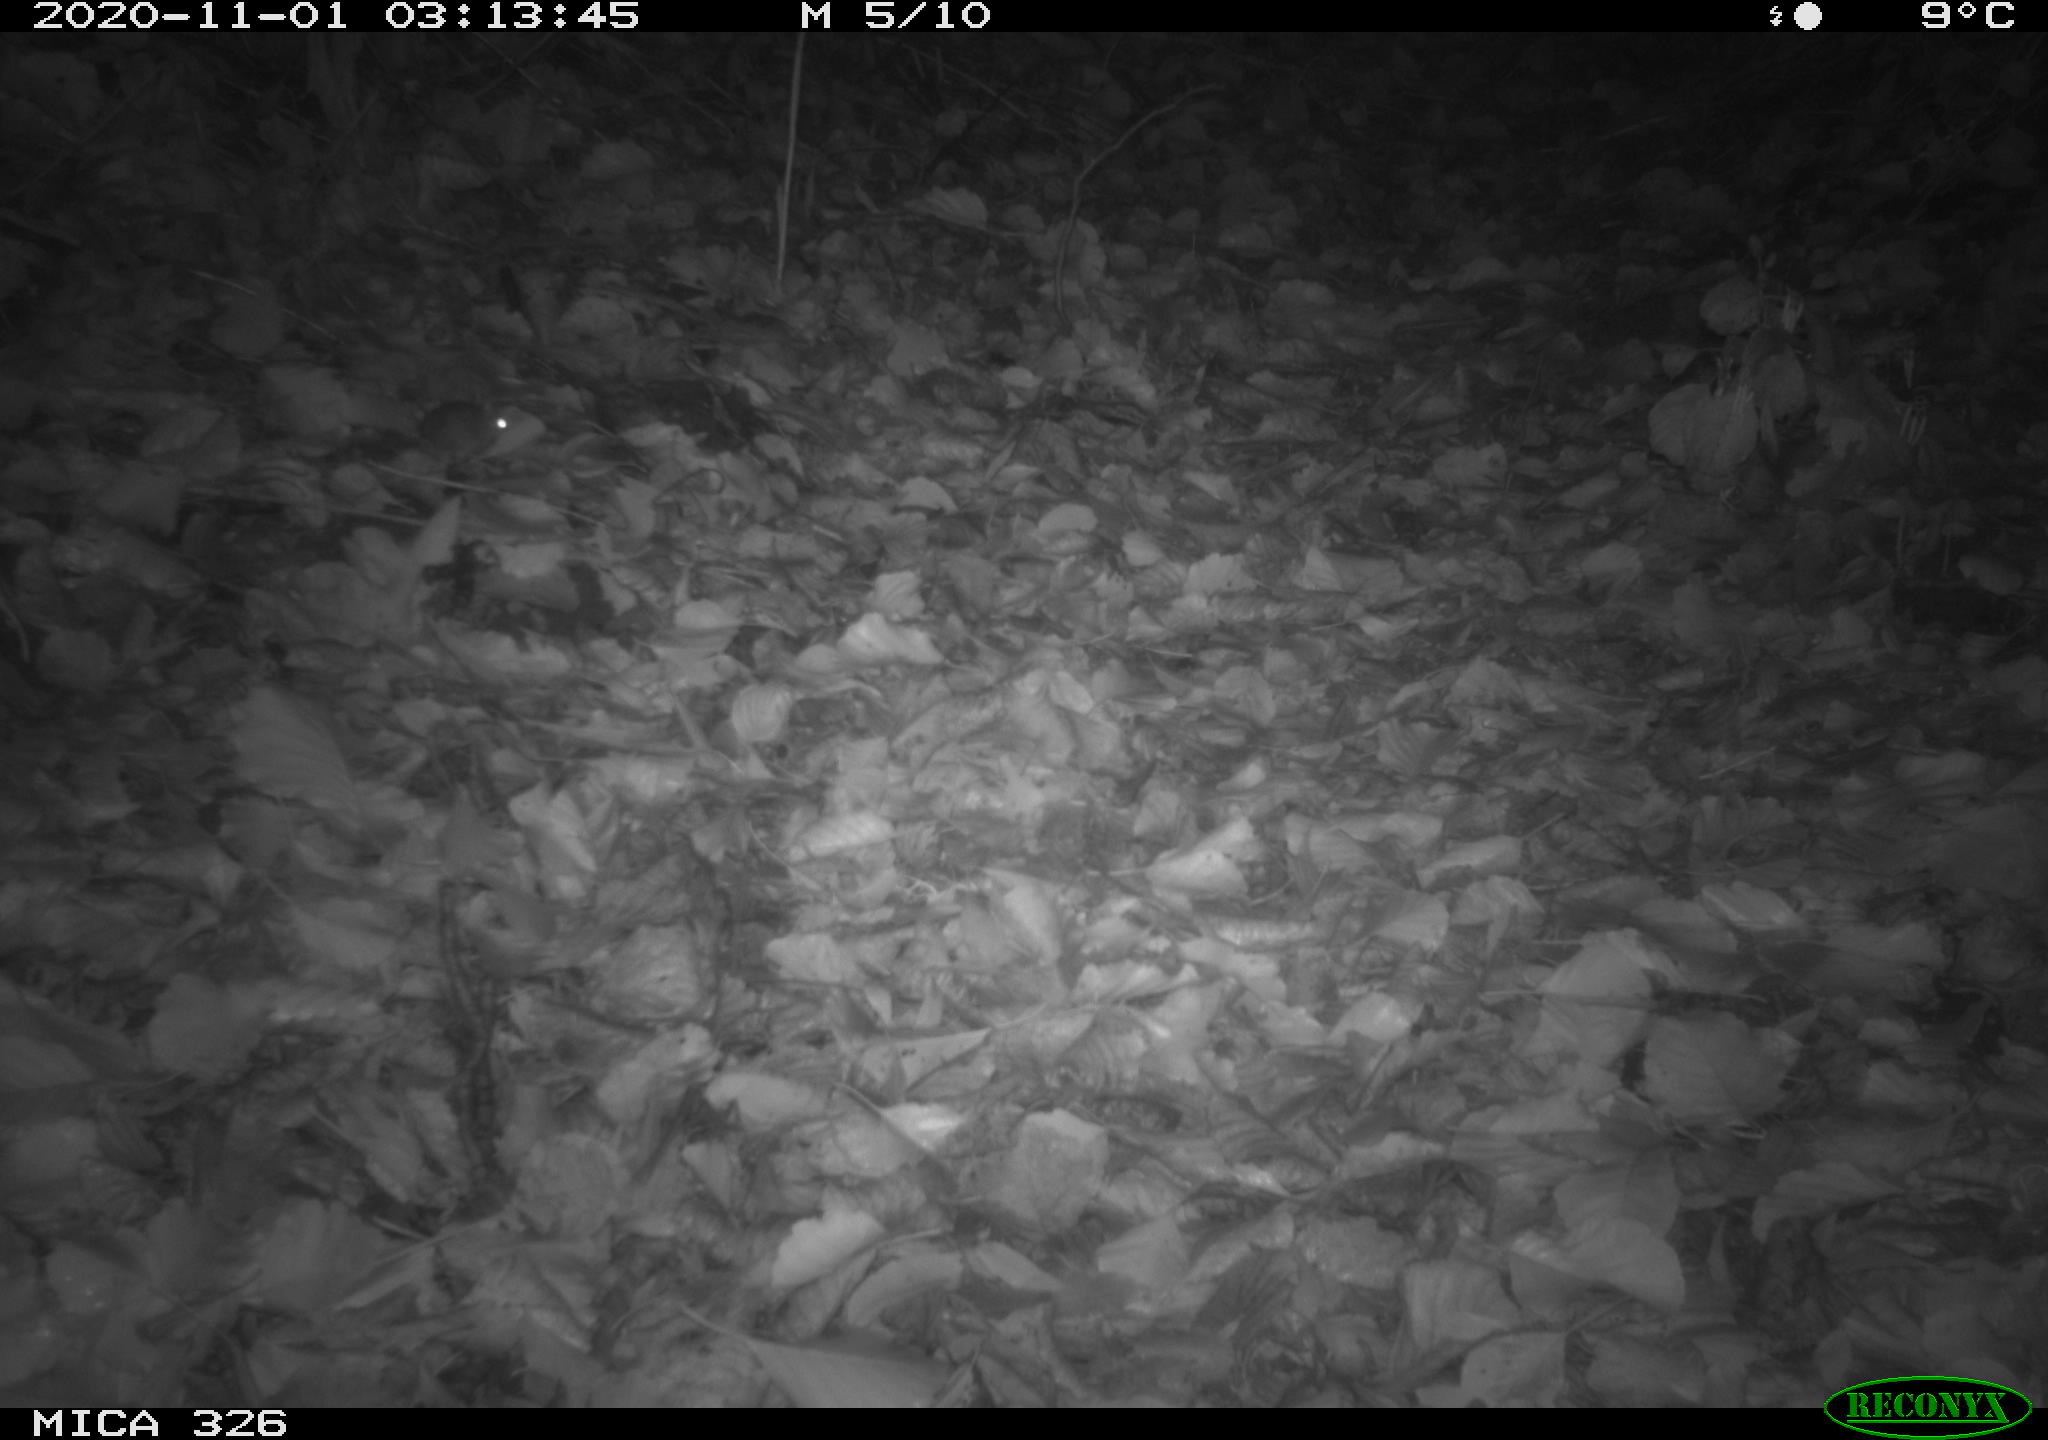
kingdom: Animalia
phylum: Chordata
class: Mammalia
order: Rodentia
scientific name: Rodentia
